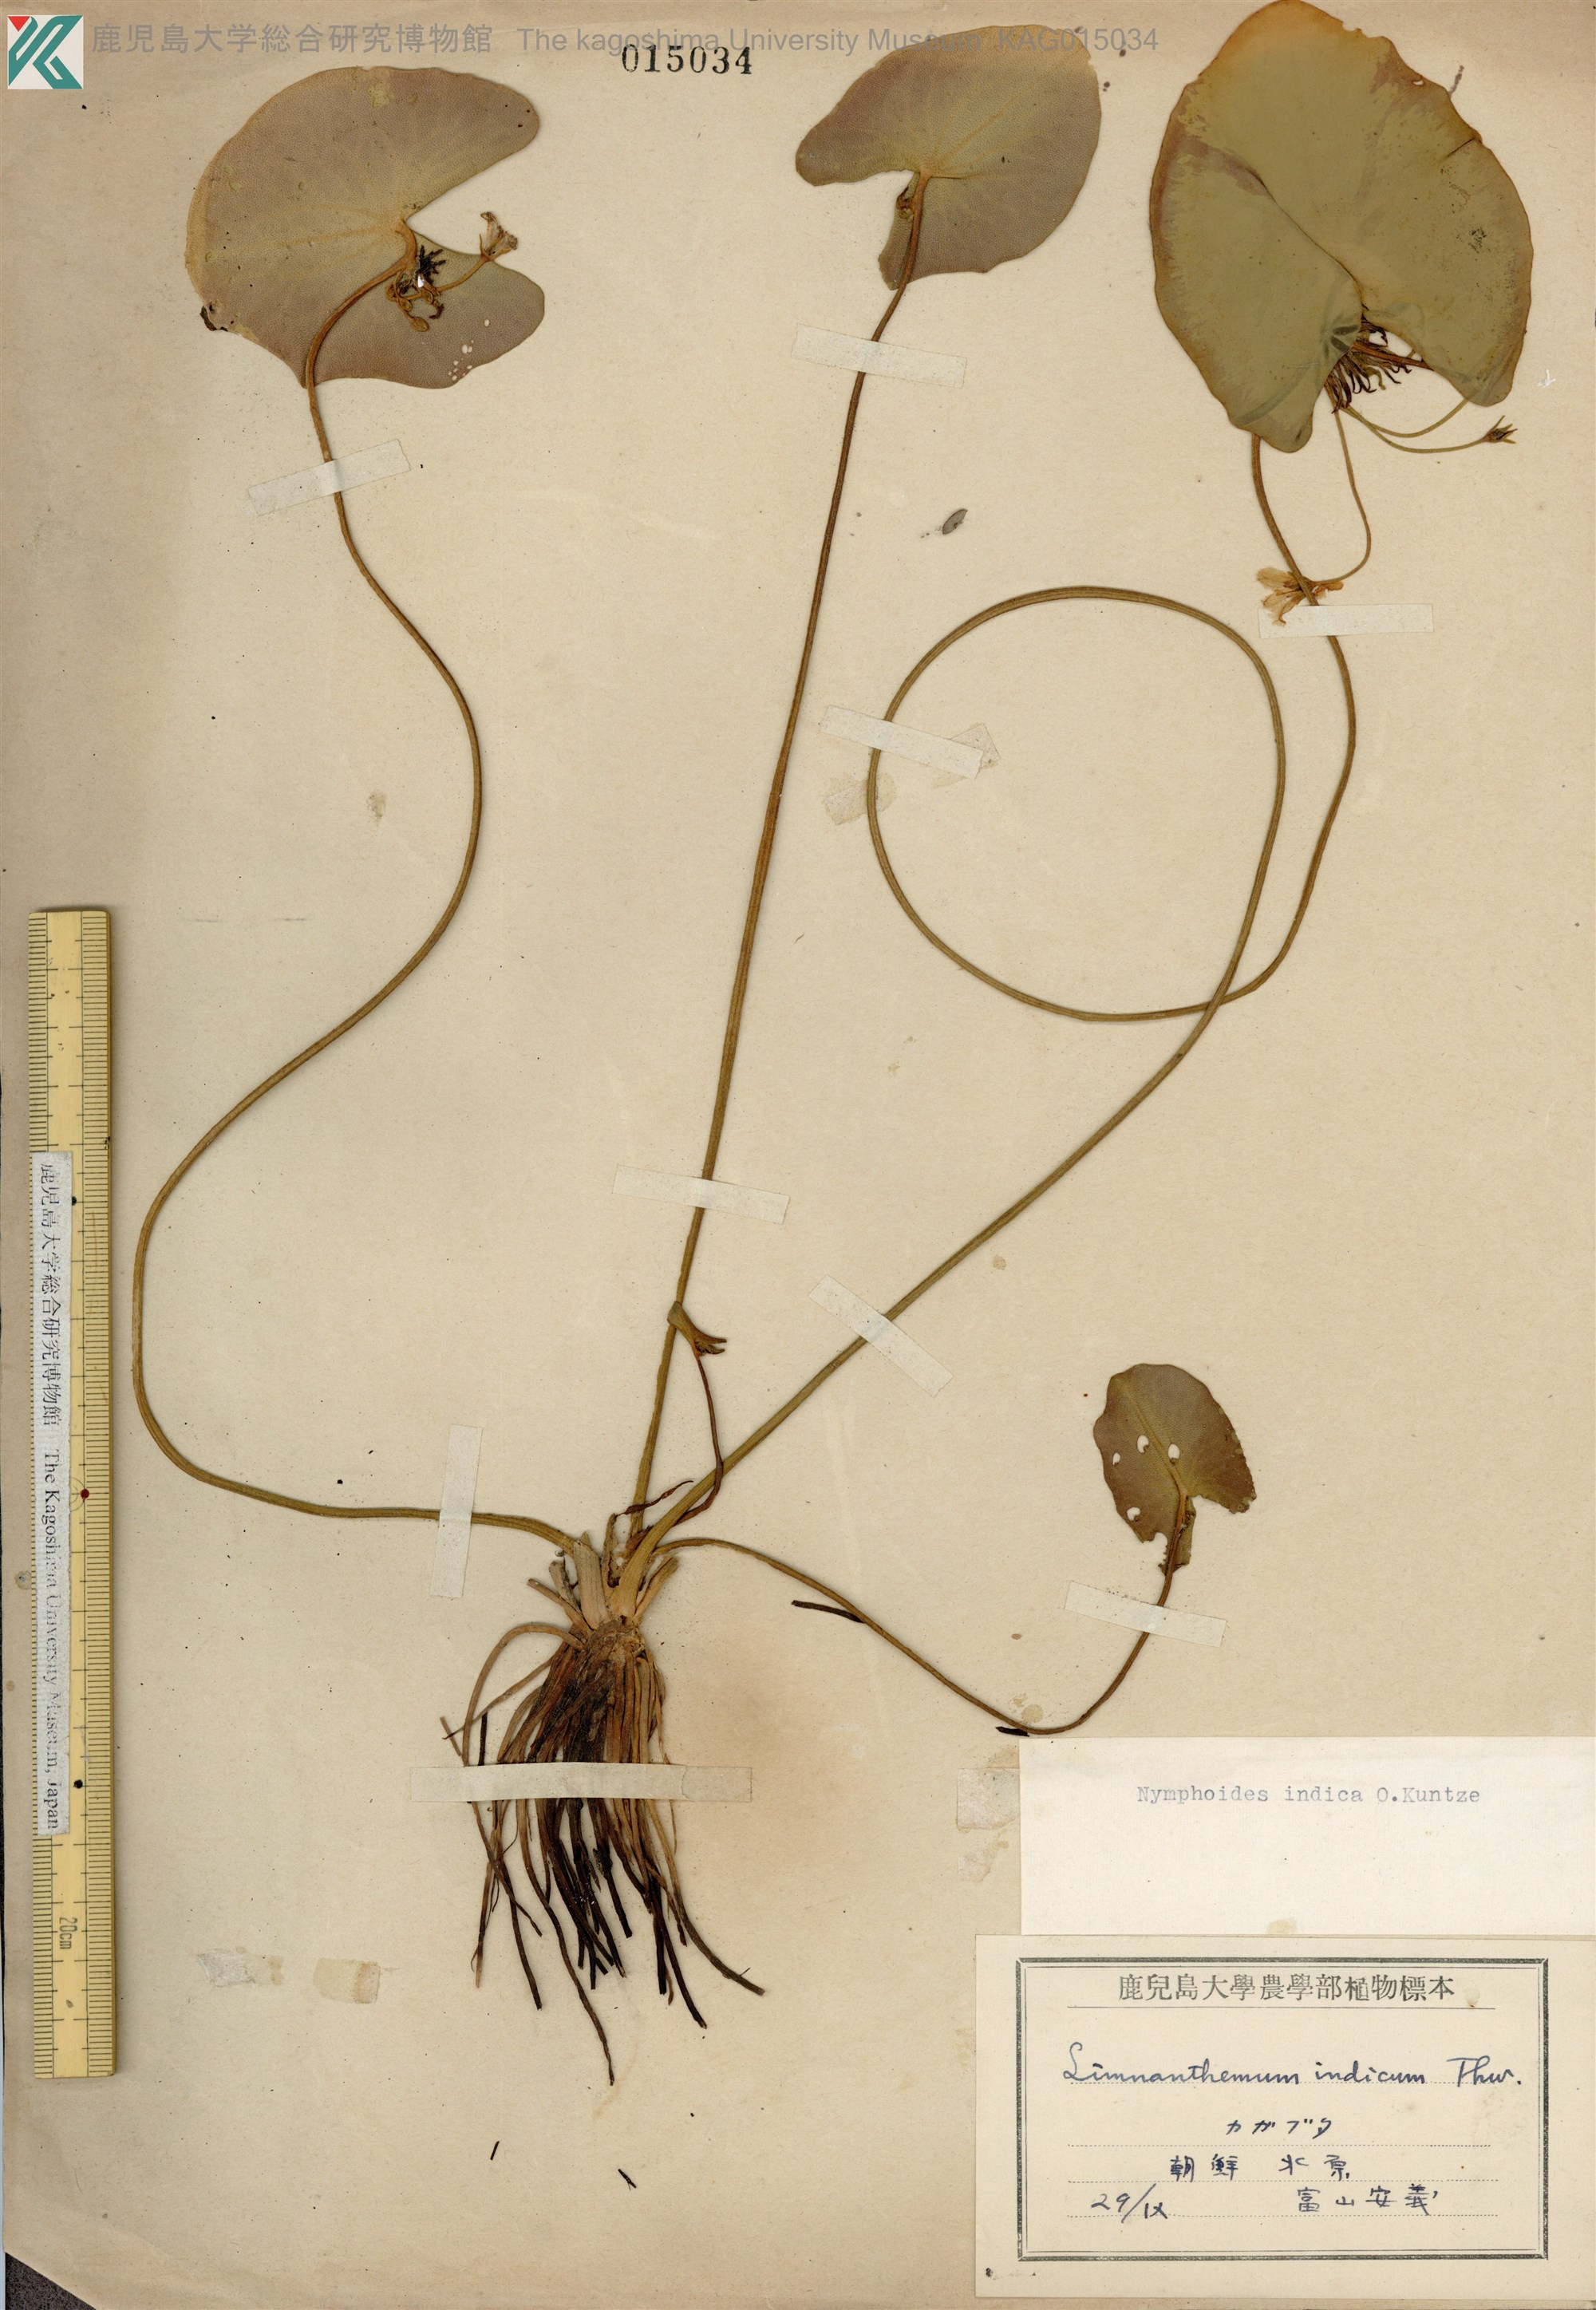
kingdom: Plantae
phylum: Tracheophyta
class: Magnoliopsida
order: Asterales
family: Menyanthaceae
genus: Nymphoides
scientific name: Nymphoides indica
